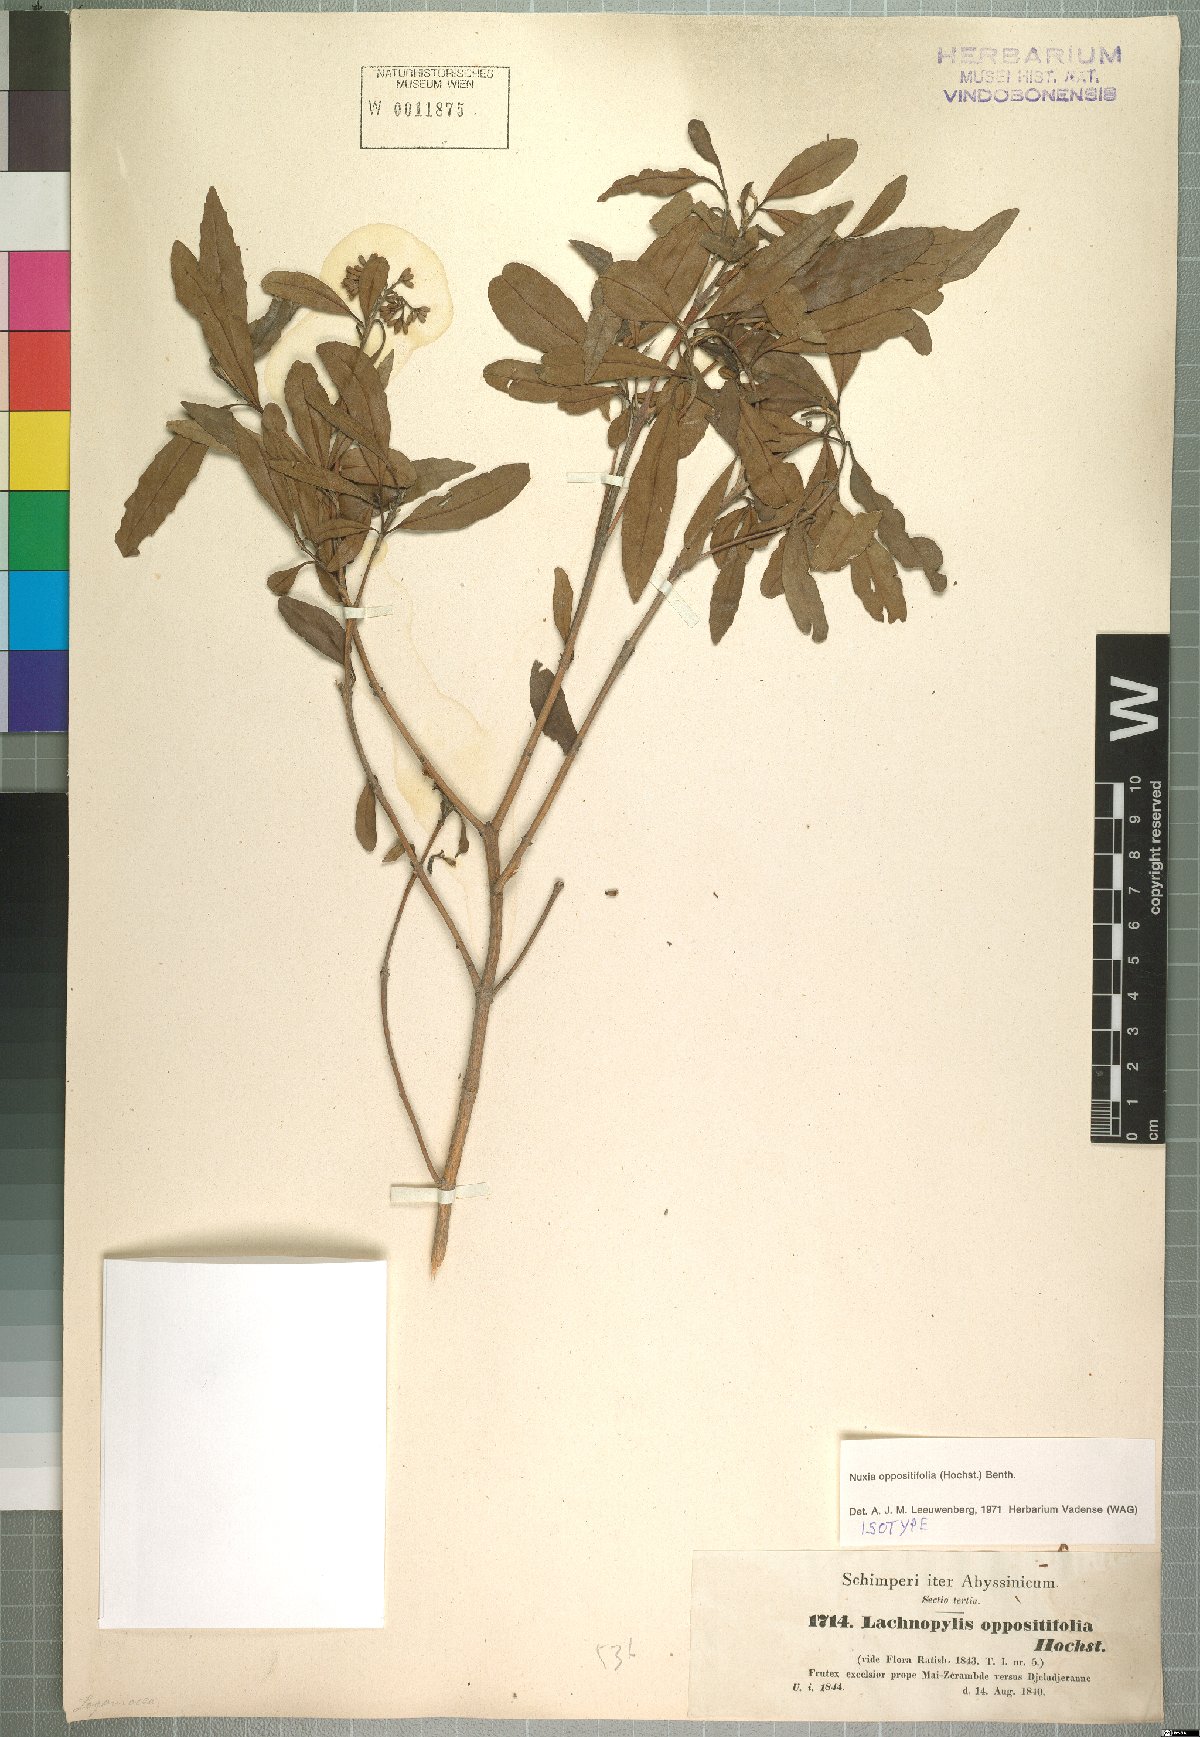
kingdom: Plantae
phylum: Tracheophyta
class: Magnoliopsida
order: Lamiales
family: Stilbaceae
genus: Nuxia
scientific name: Nuxia oppositifolia
